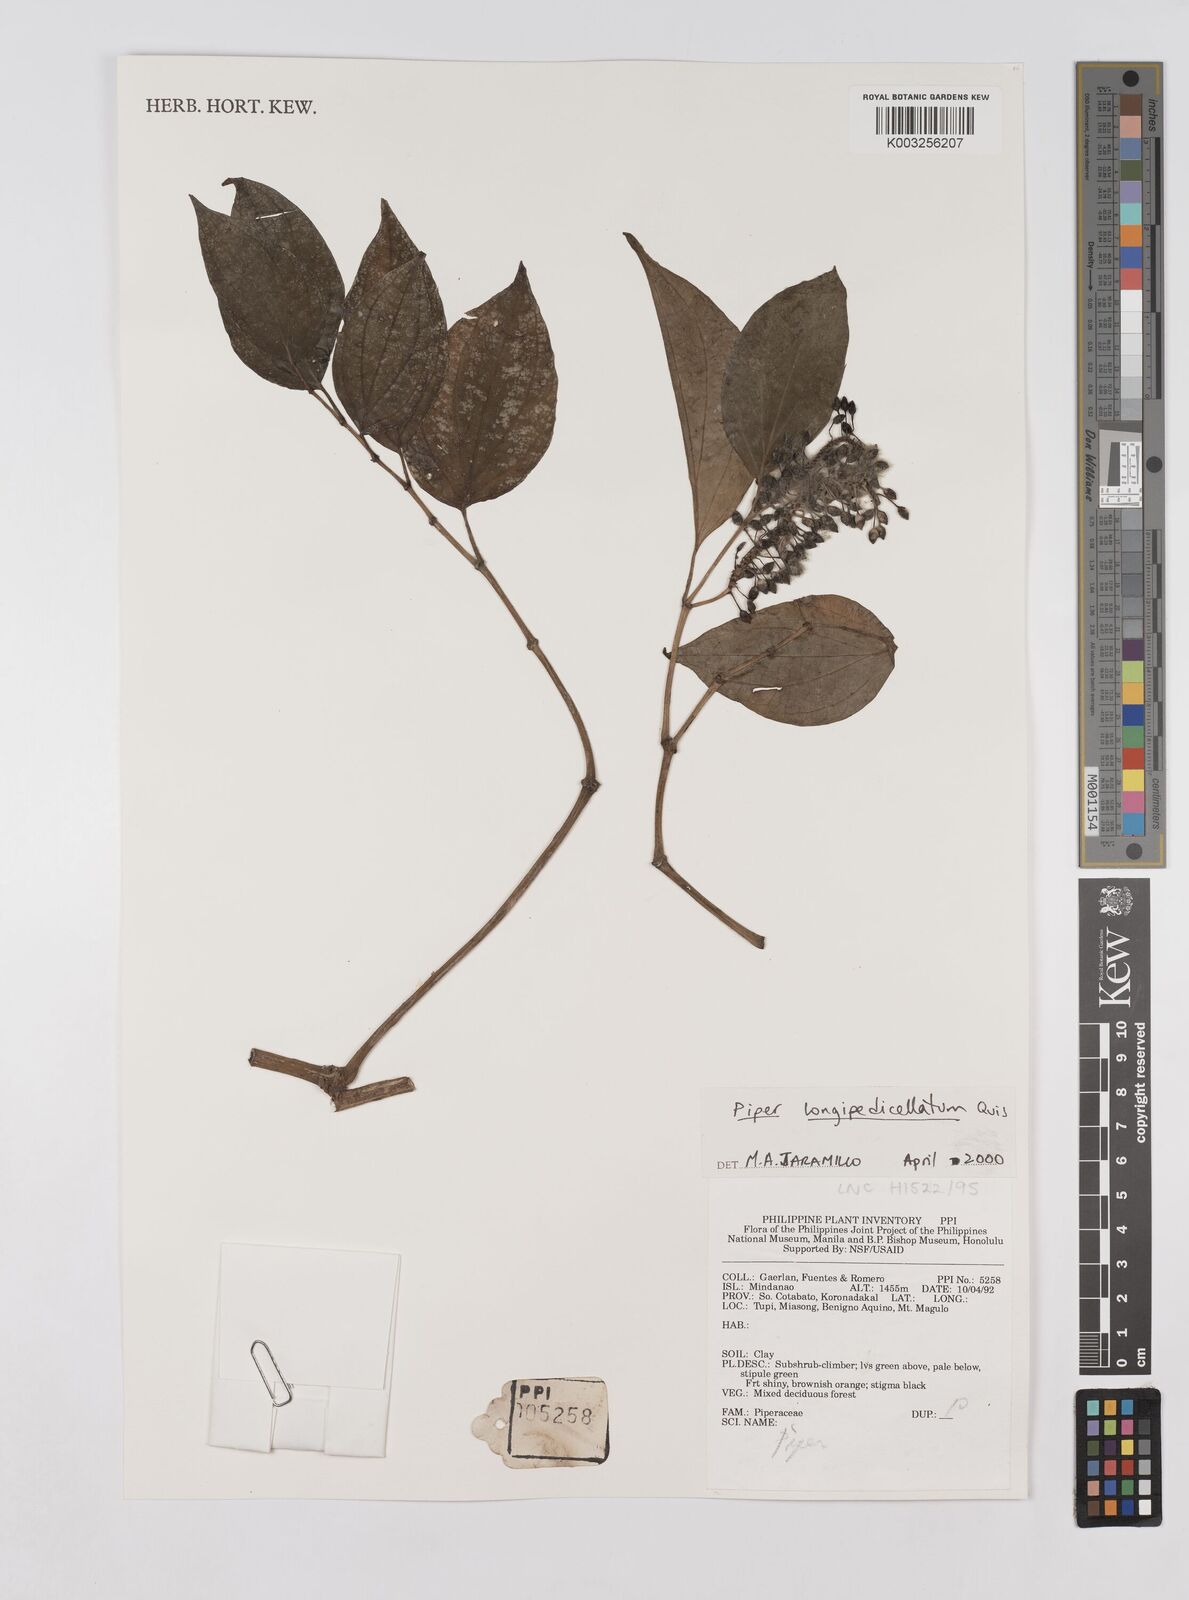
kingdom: Plantae
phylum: Tracheophyta
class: Magnoliopsida
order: Piperales
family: Piperaceae
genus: Piper
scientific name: Piper longipedicellatum
